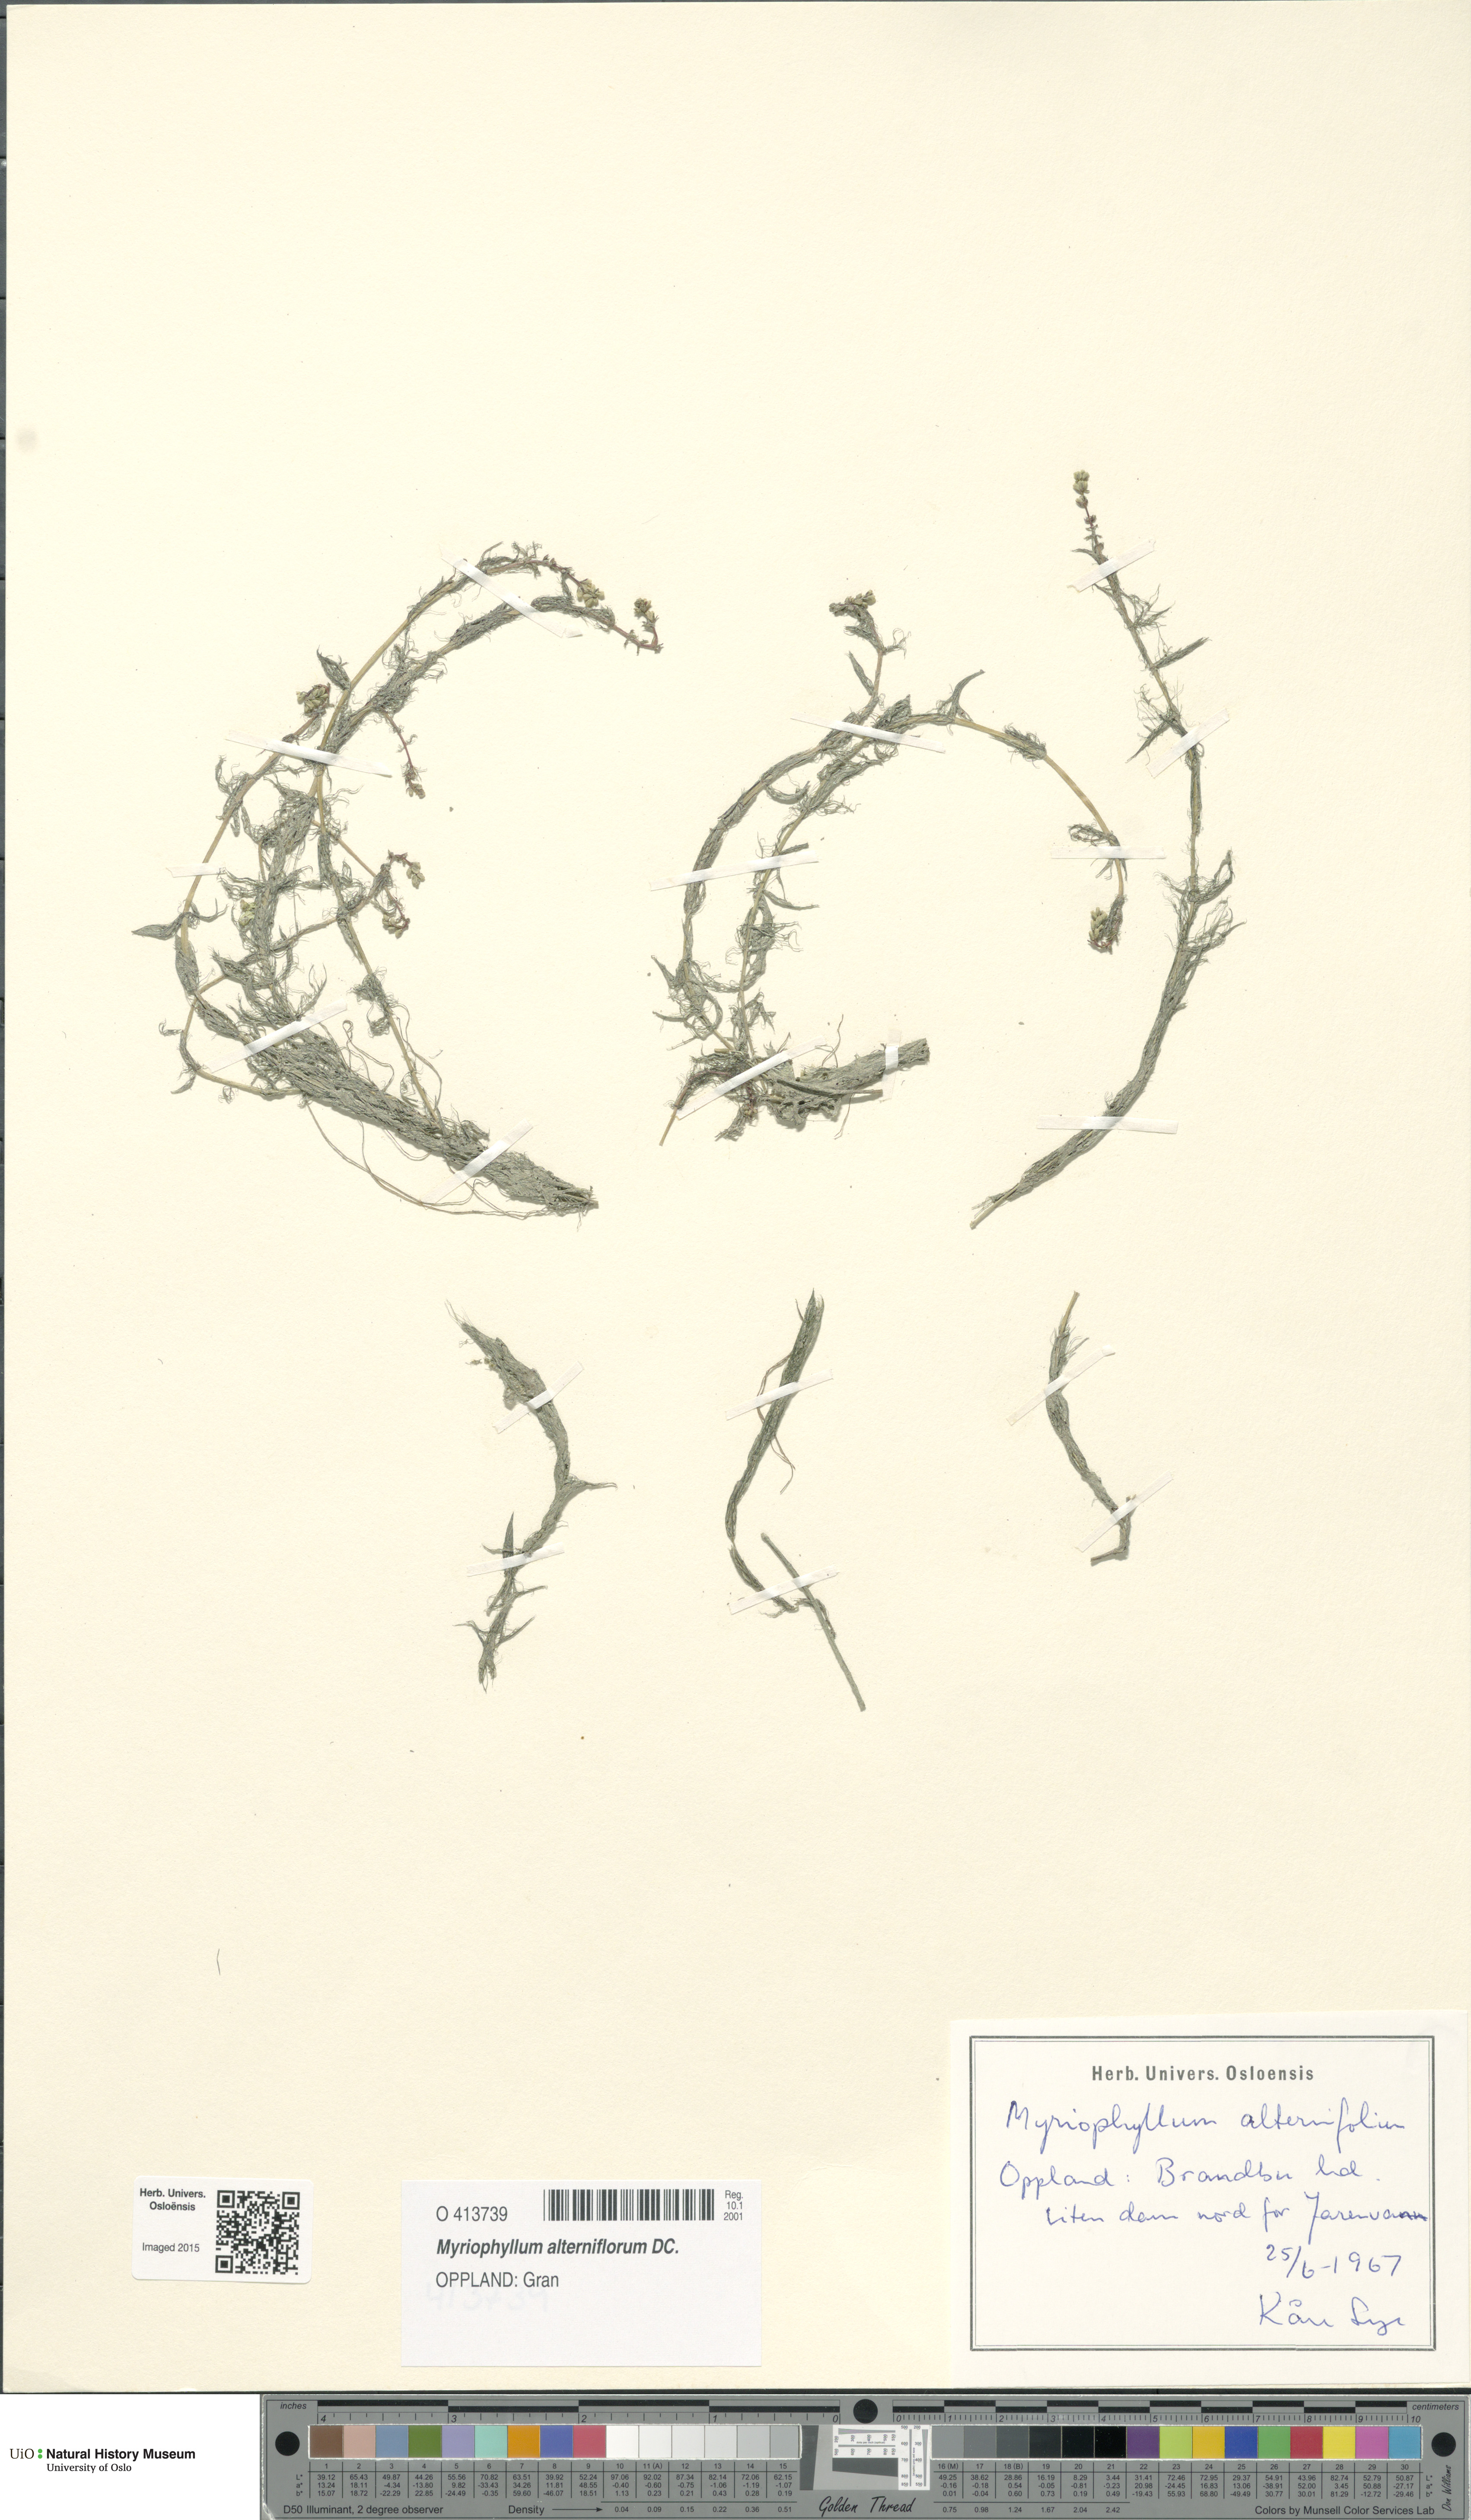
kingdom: Plantae
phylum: Tracheophyta
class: Magnoliopsida
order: Saxifragales
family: Haloragaceae
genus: Myriophyllum
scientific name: Myriophyllum alterniflorum
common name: Alternate water-milfoil
